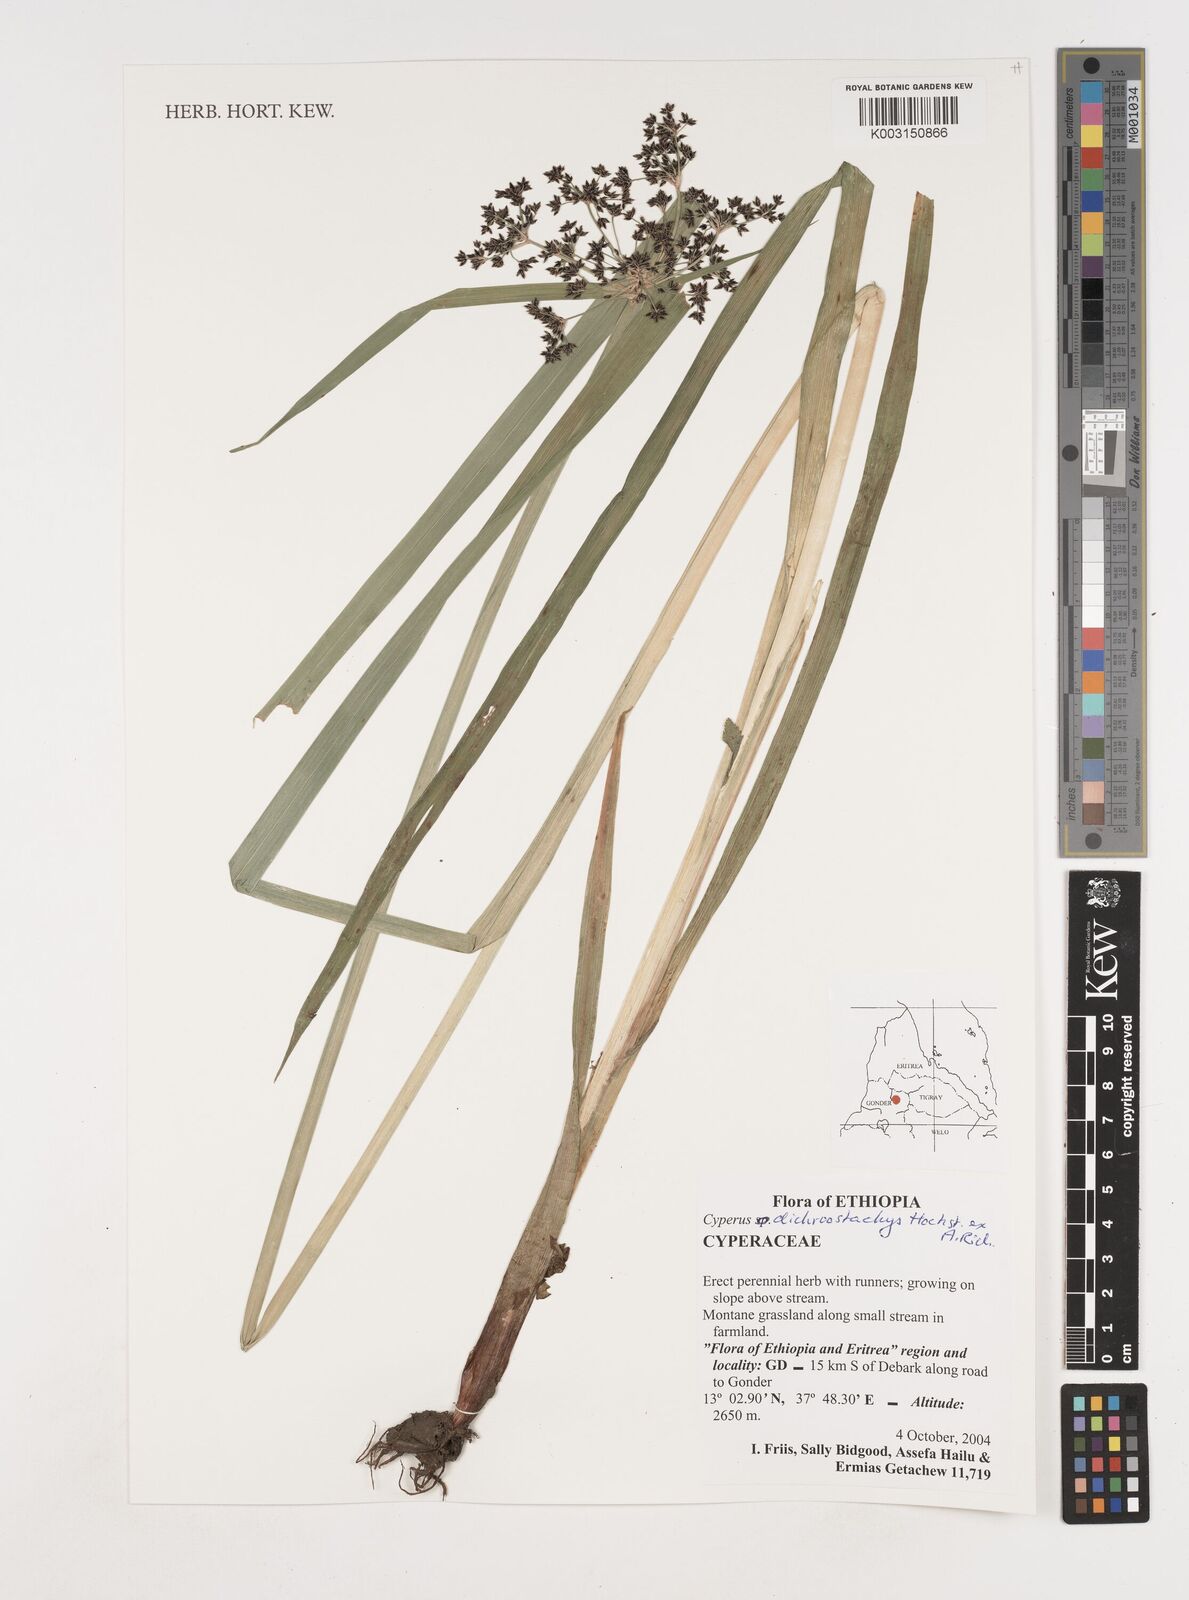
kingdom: Plantae
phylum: Tracheophyta
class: Liliopsida
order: Poales
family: Cyperaceae
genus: Cyperus
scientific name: Cyperus dichrostachyus
